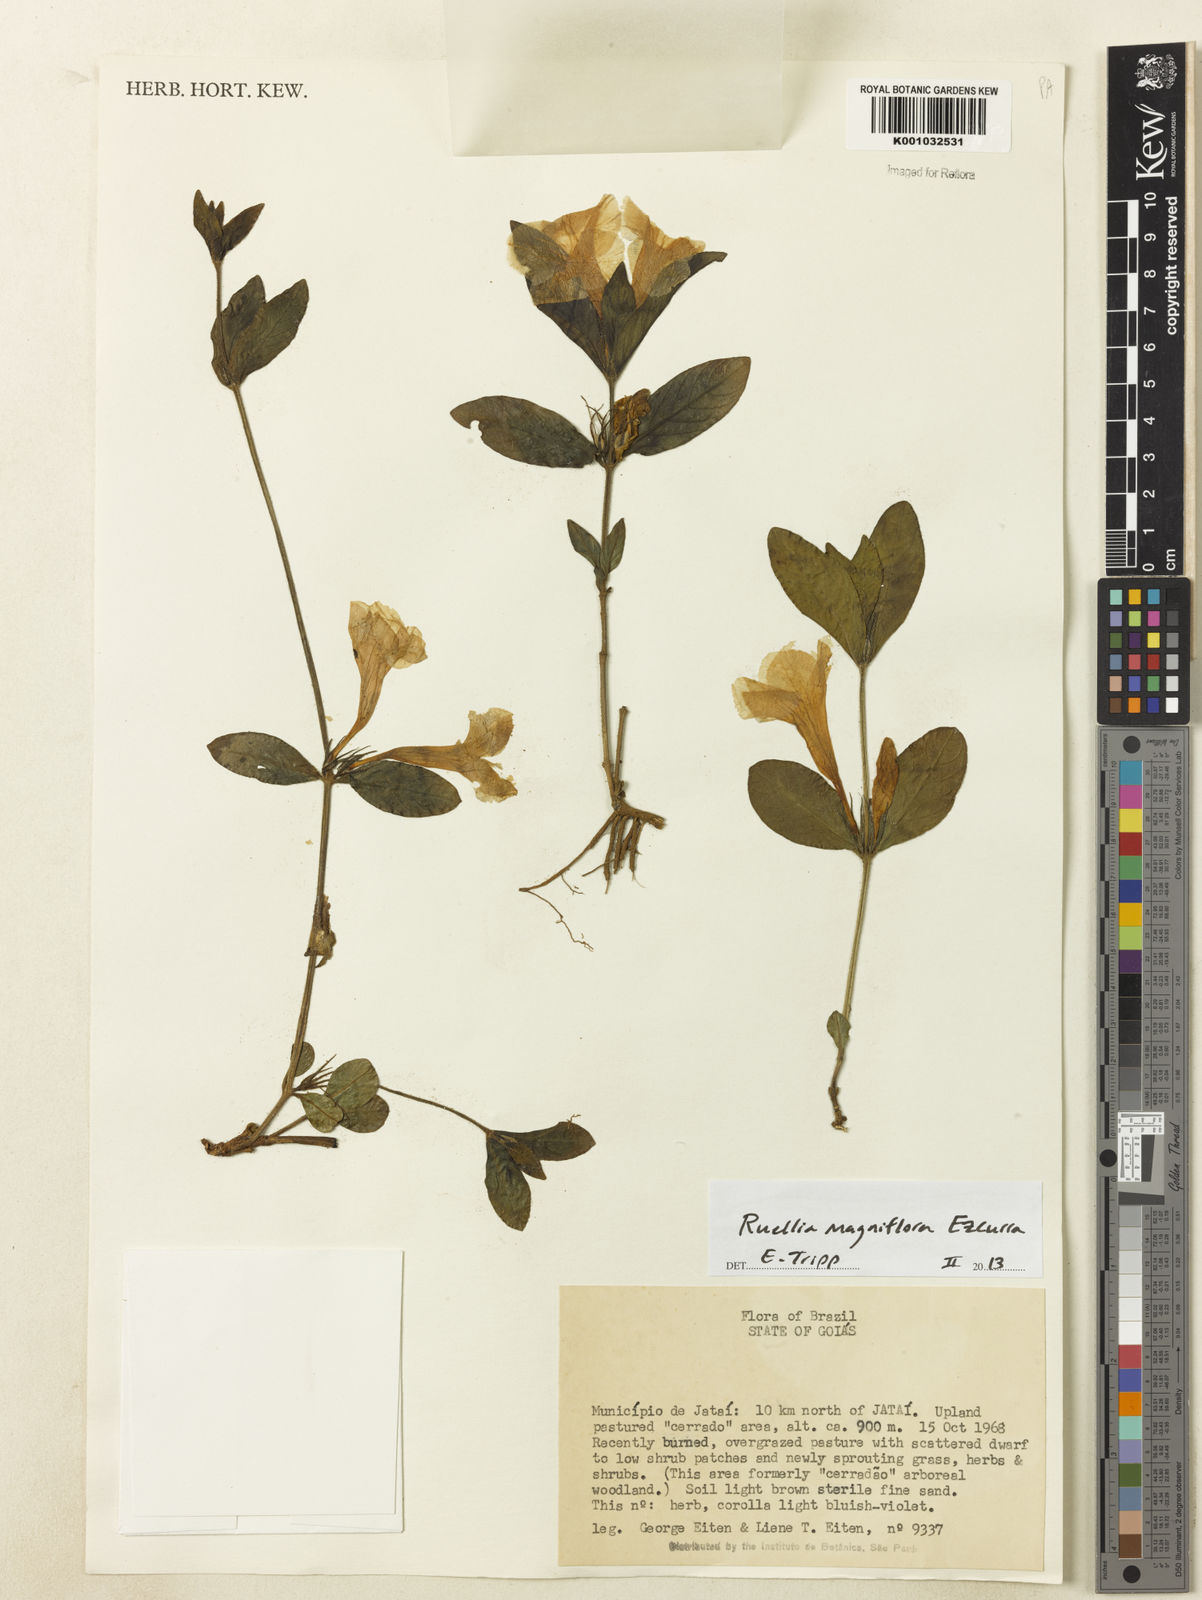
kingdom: Plantae
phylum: Tracheophyta
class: Magnoliopsida
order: Lamiales
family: Acanthaceae
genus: Ruellia
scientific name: Ruellia magniflora
